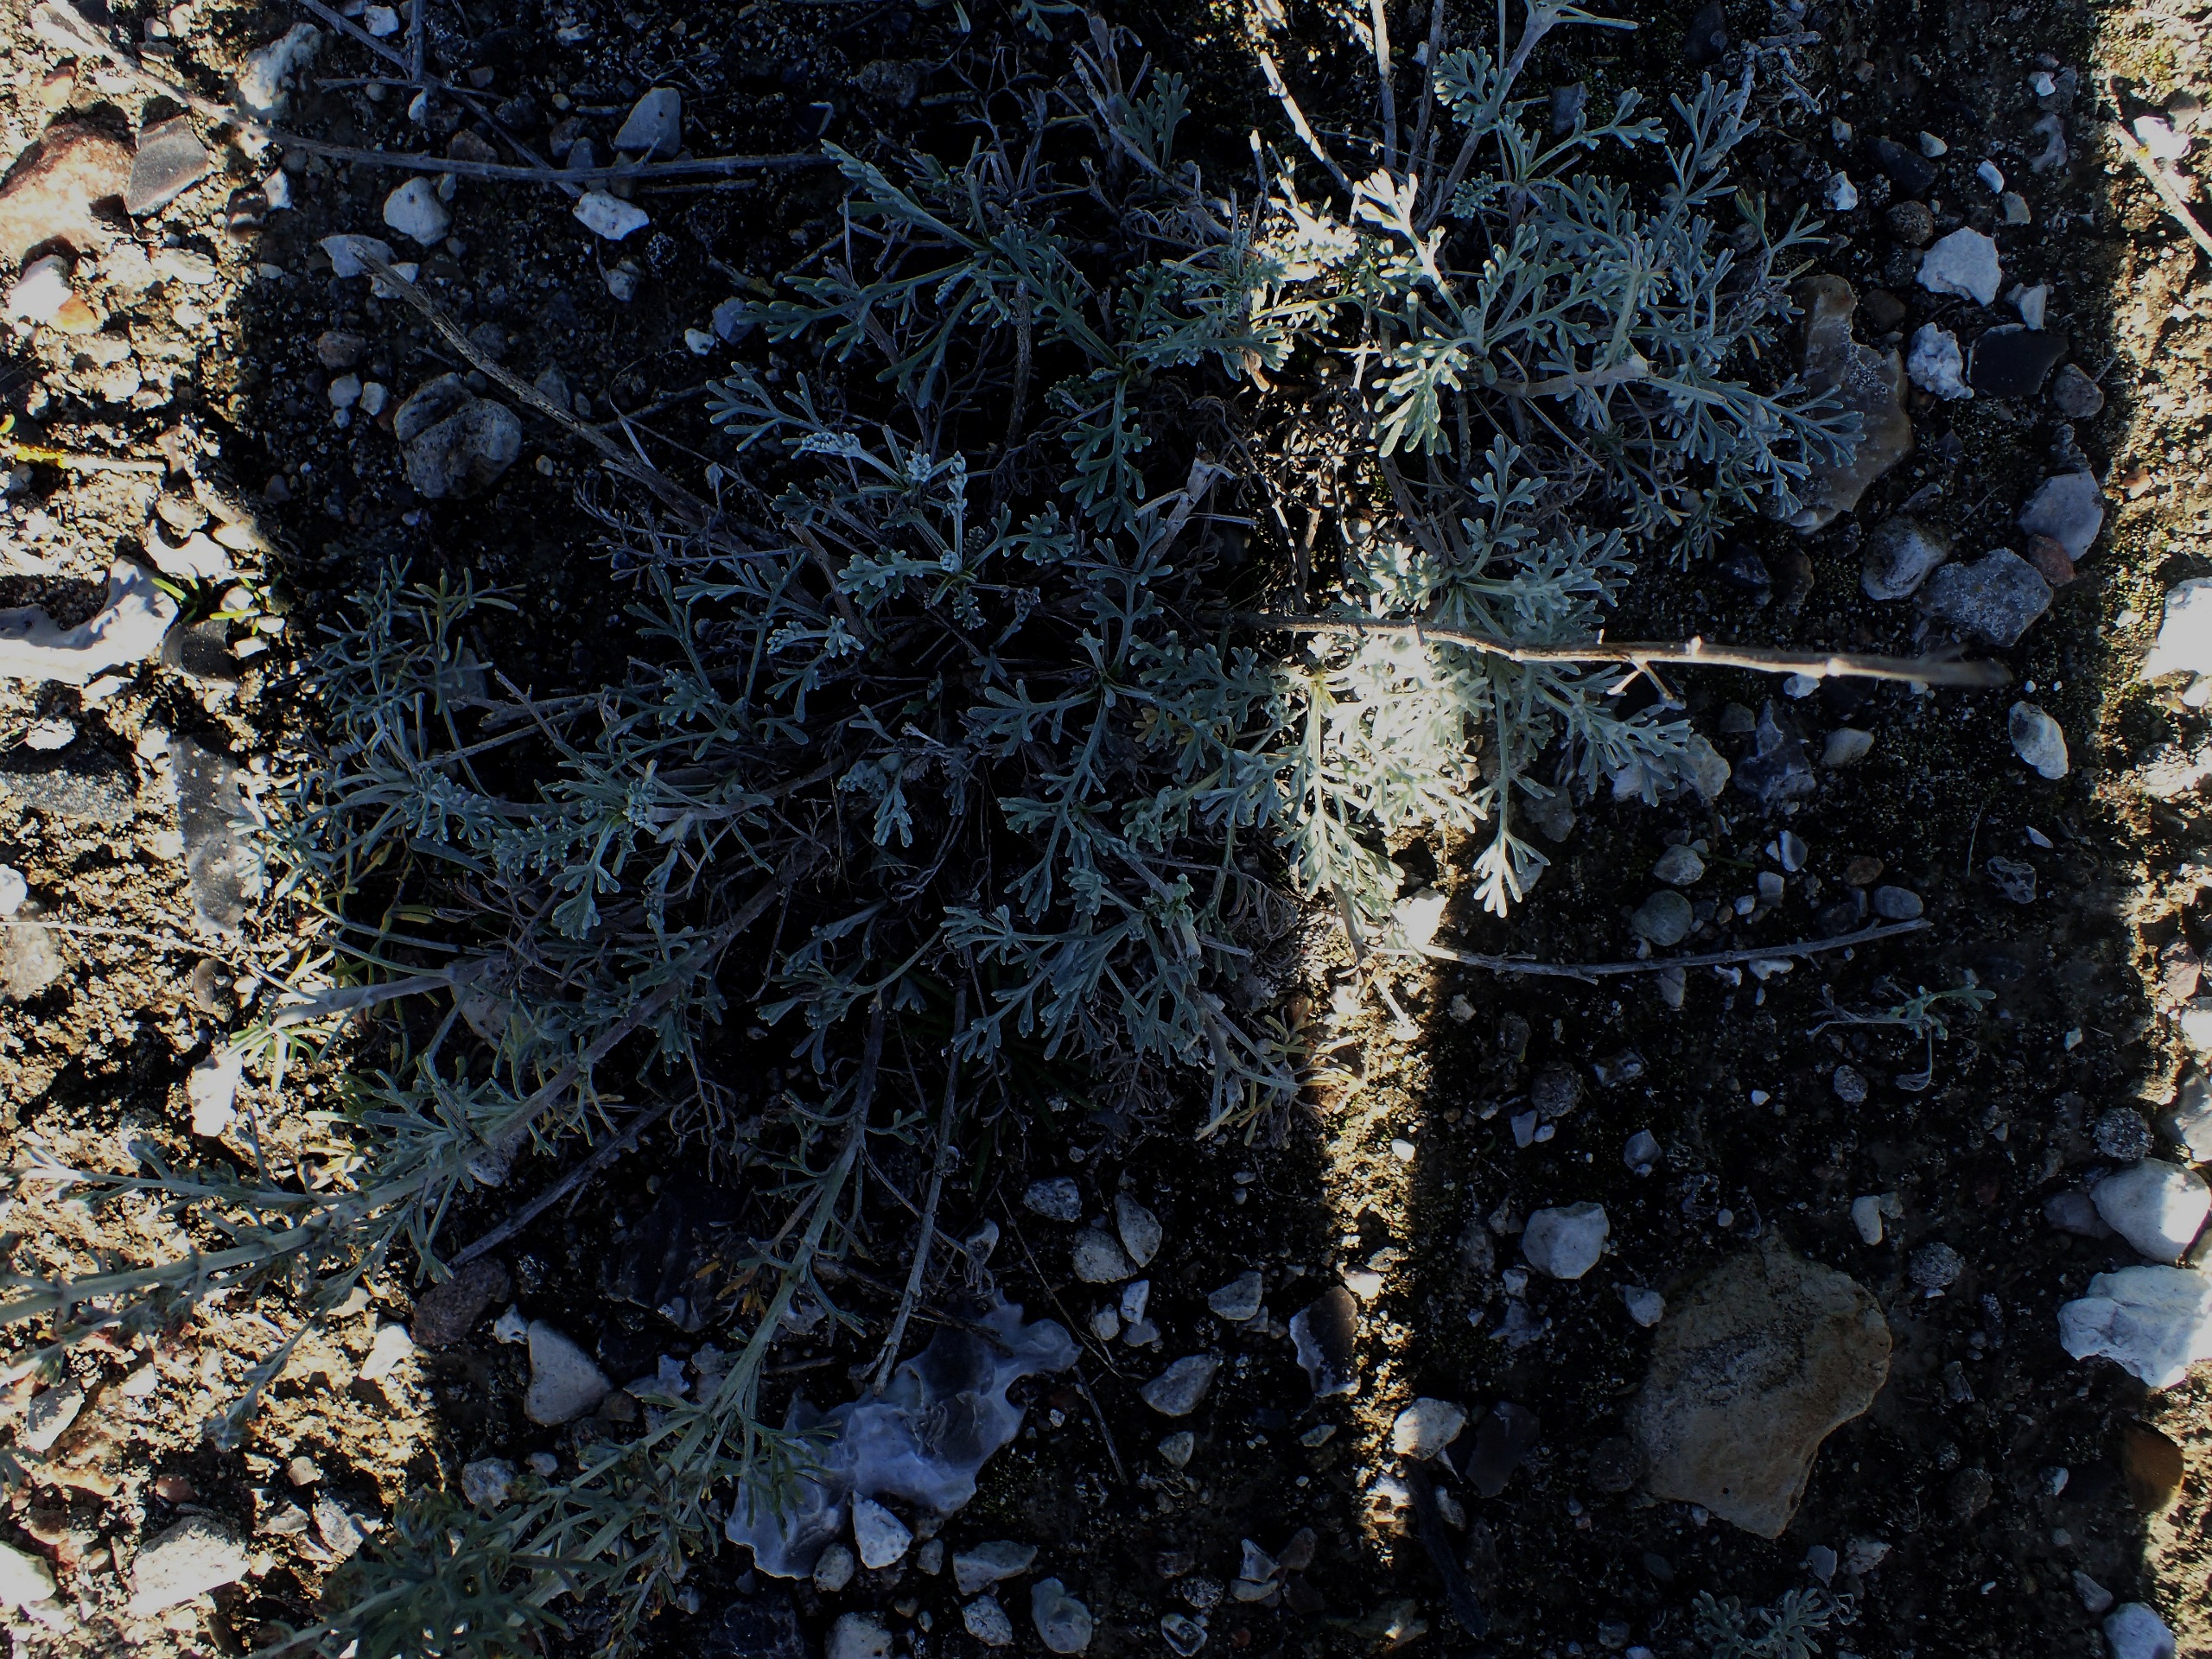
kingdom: Plantae
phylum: Tracheophyta
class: Magnoliopsida
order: Asterales
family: Asteraceae
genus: Artemisia
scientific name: Artemisia maritima
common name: Strandmalurt
